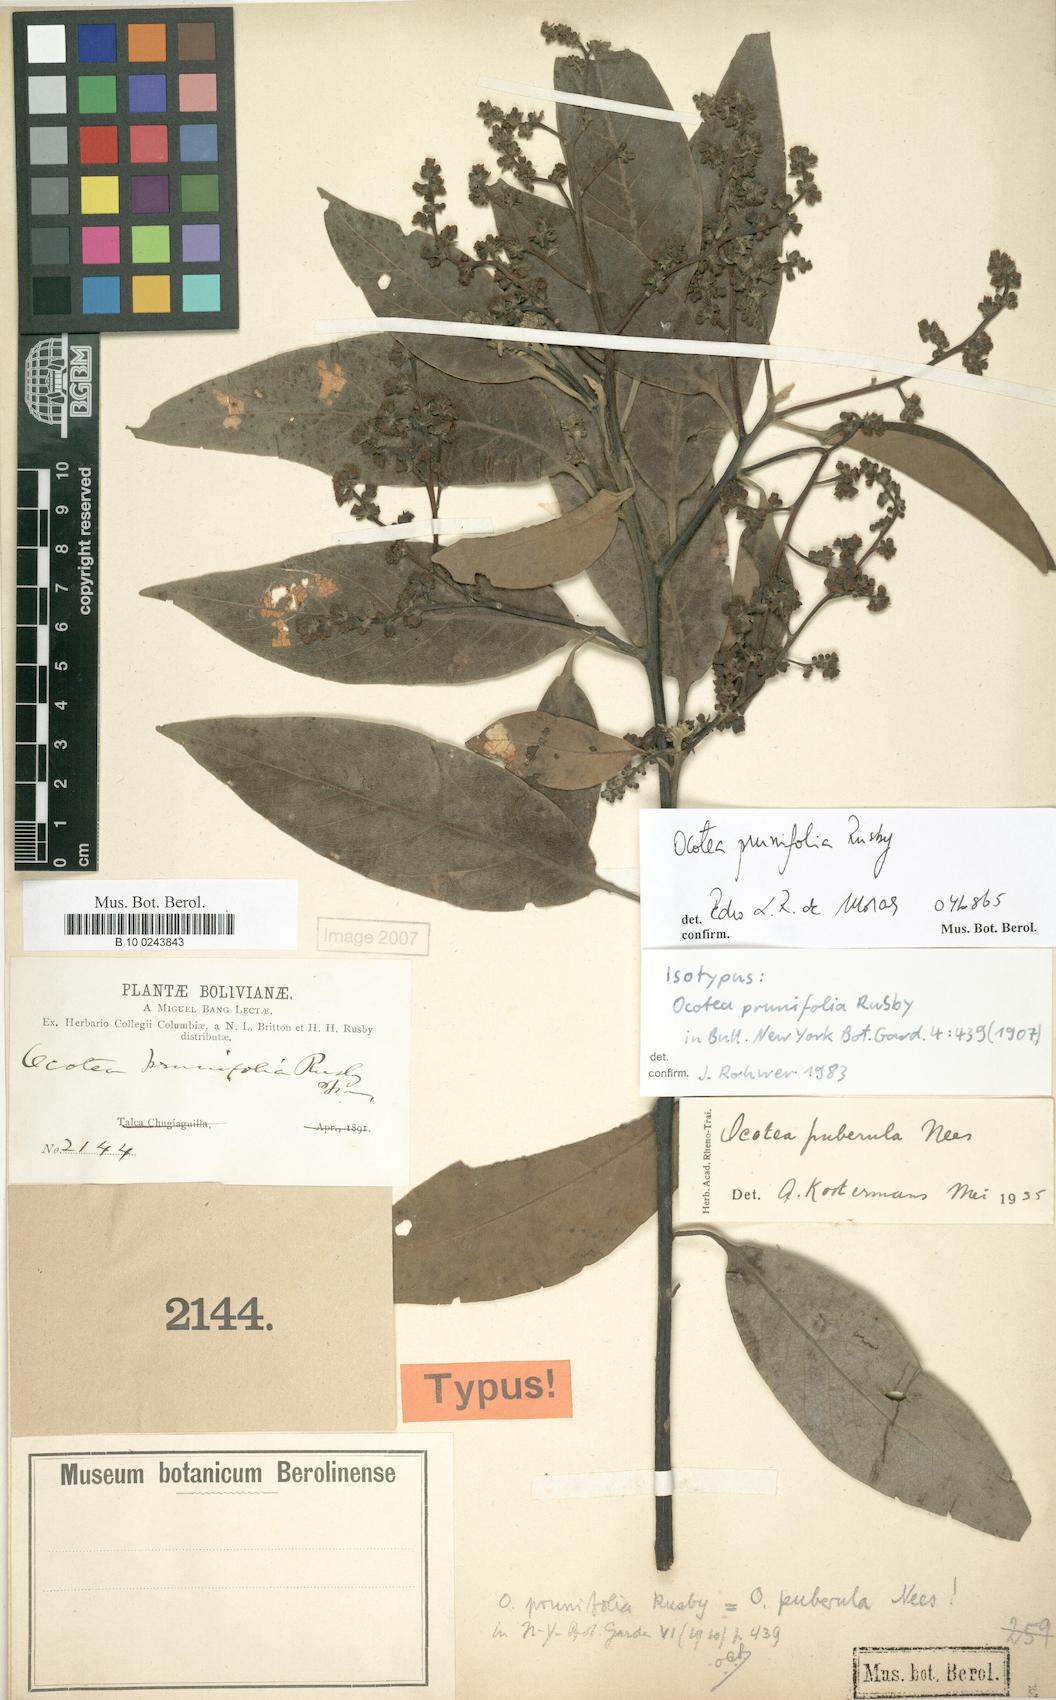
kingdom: Plantae
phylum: Tracheophyta
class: Magnoliopsida
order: Laurales
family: Lauraceae
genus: Ocotea
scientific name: Ocotea prunifolia
